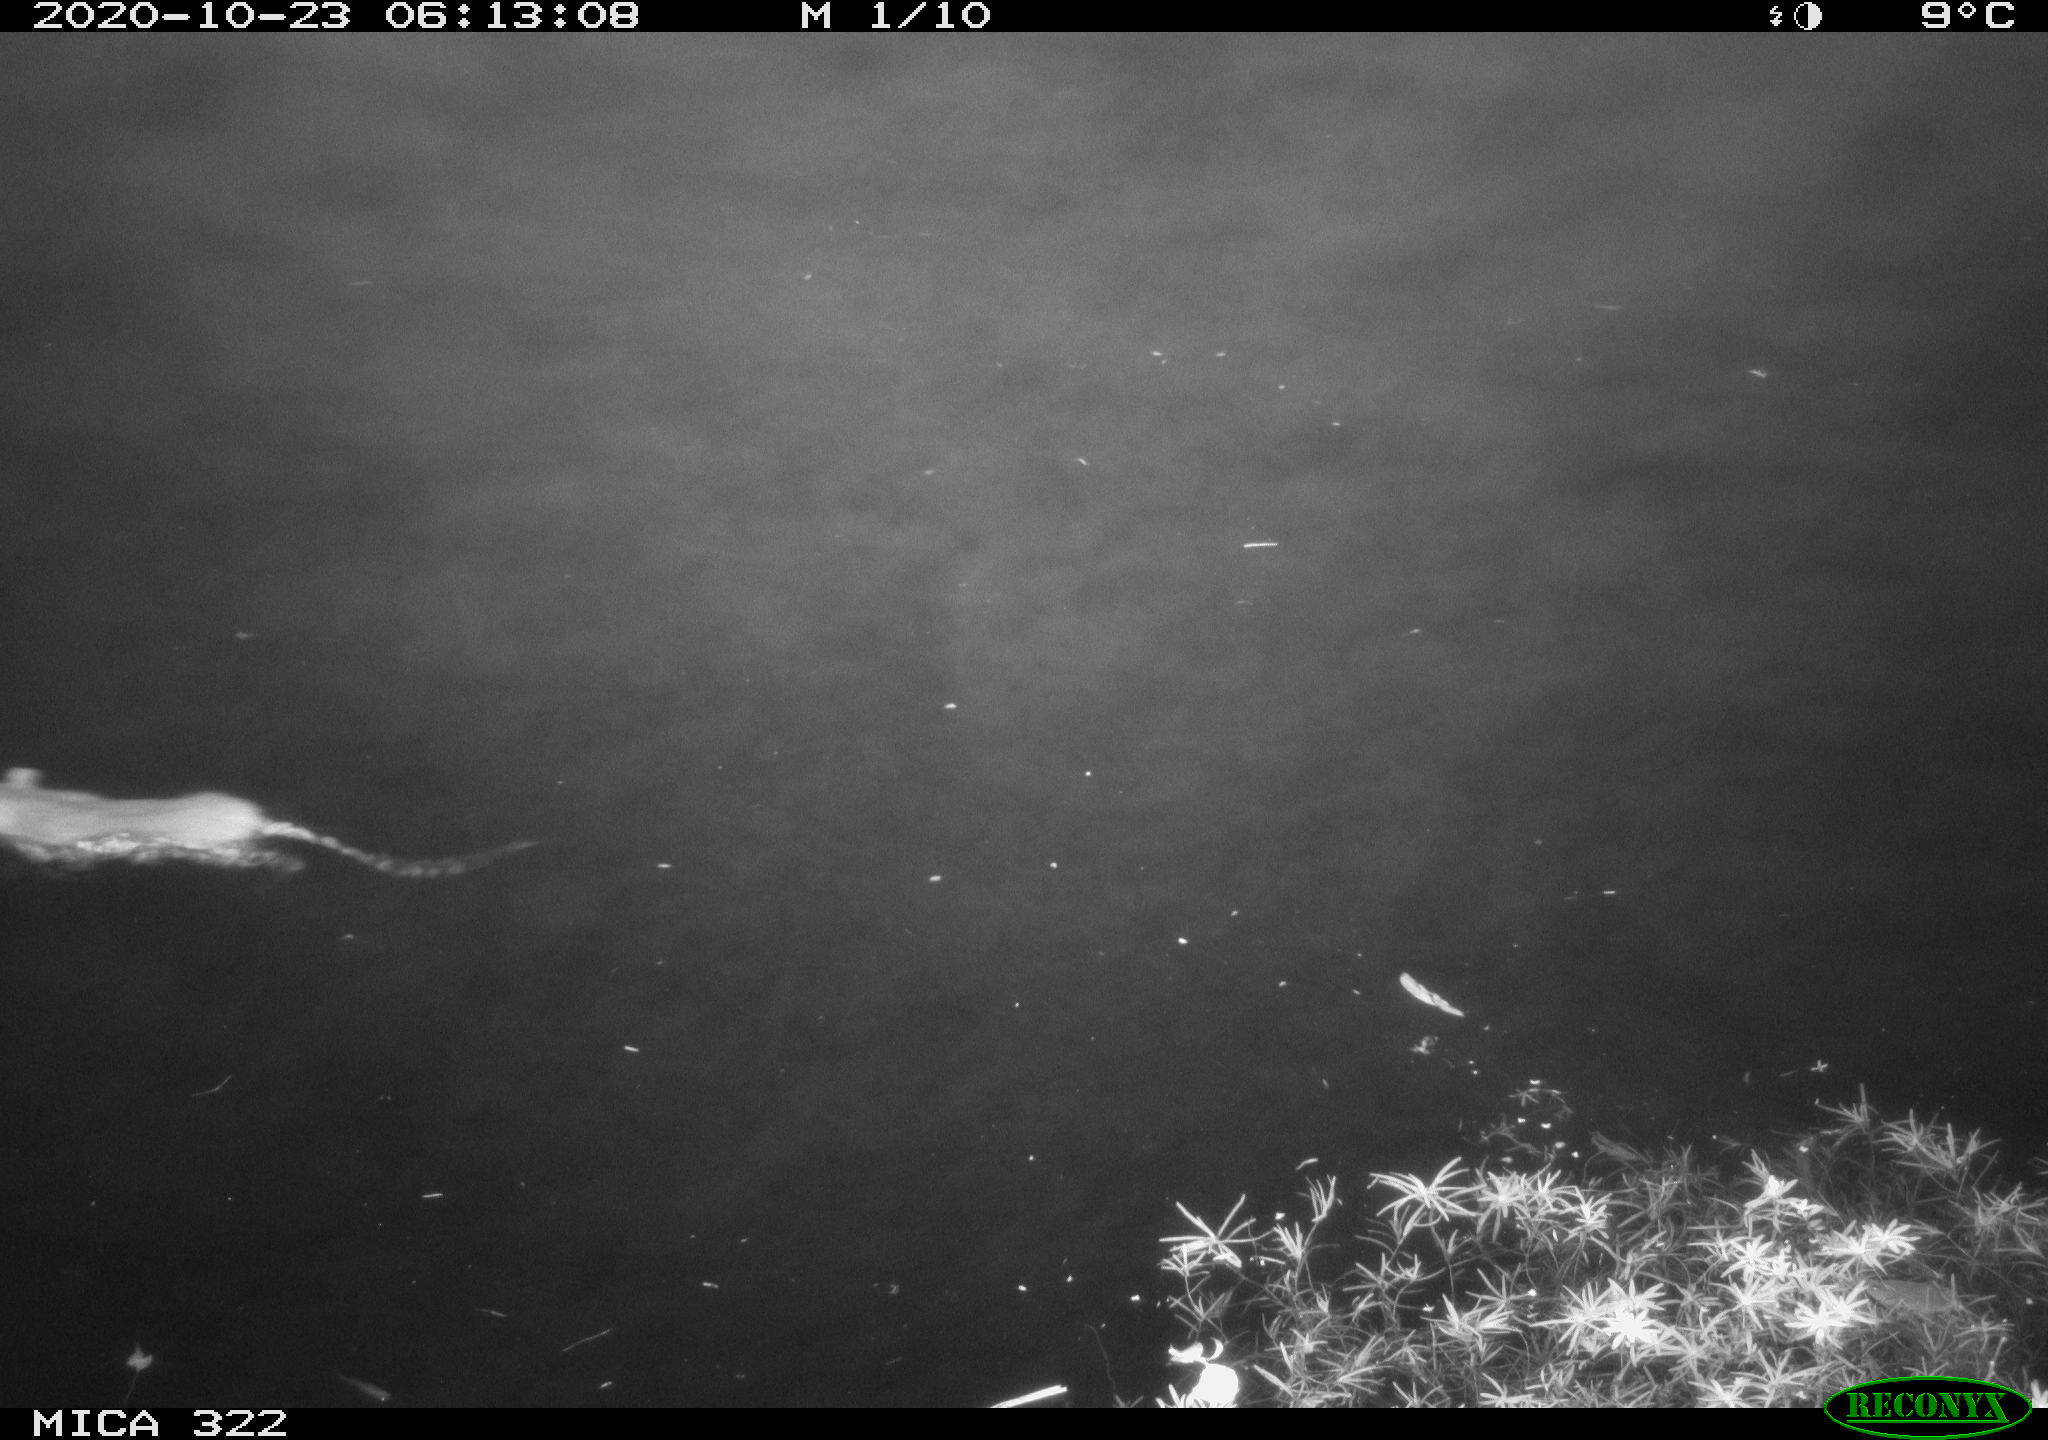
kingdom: Animalia
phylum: Chordata
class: Mammalia
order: Rodentia
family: Muridae
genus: Rattus
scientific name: Rattus norvegicus
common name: Brown rat
